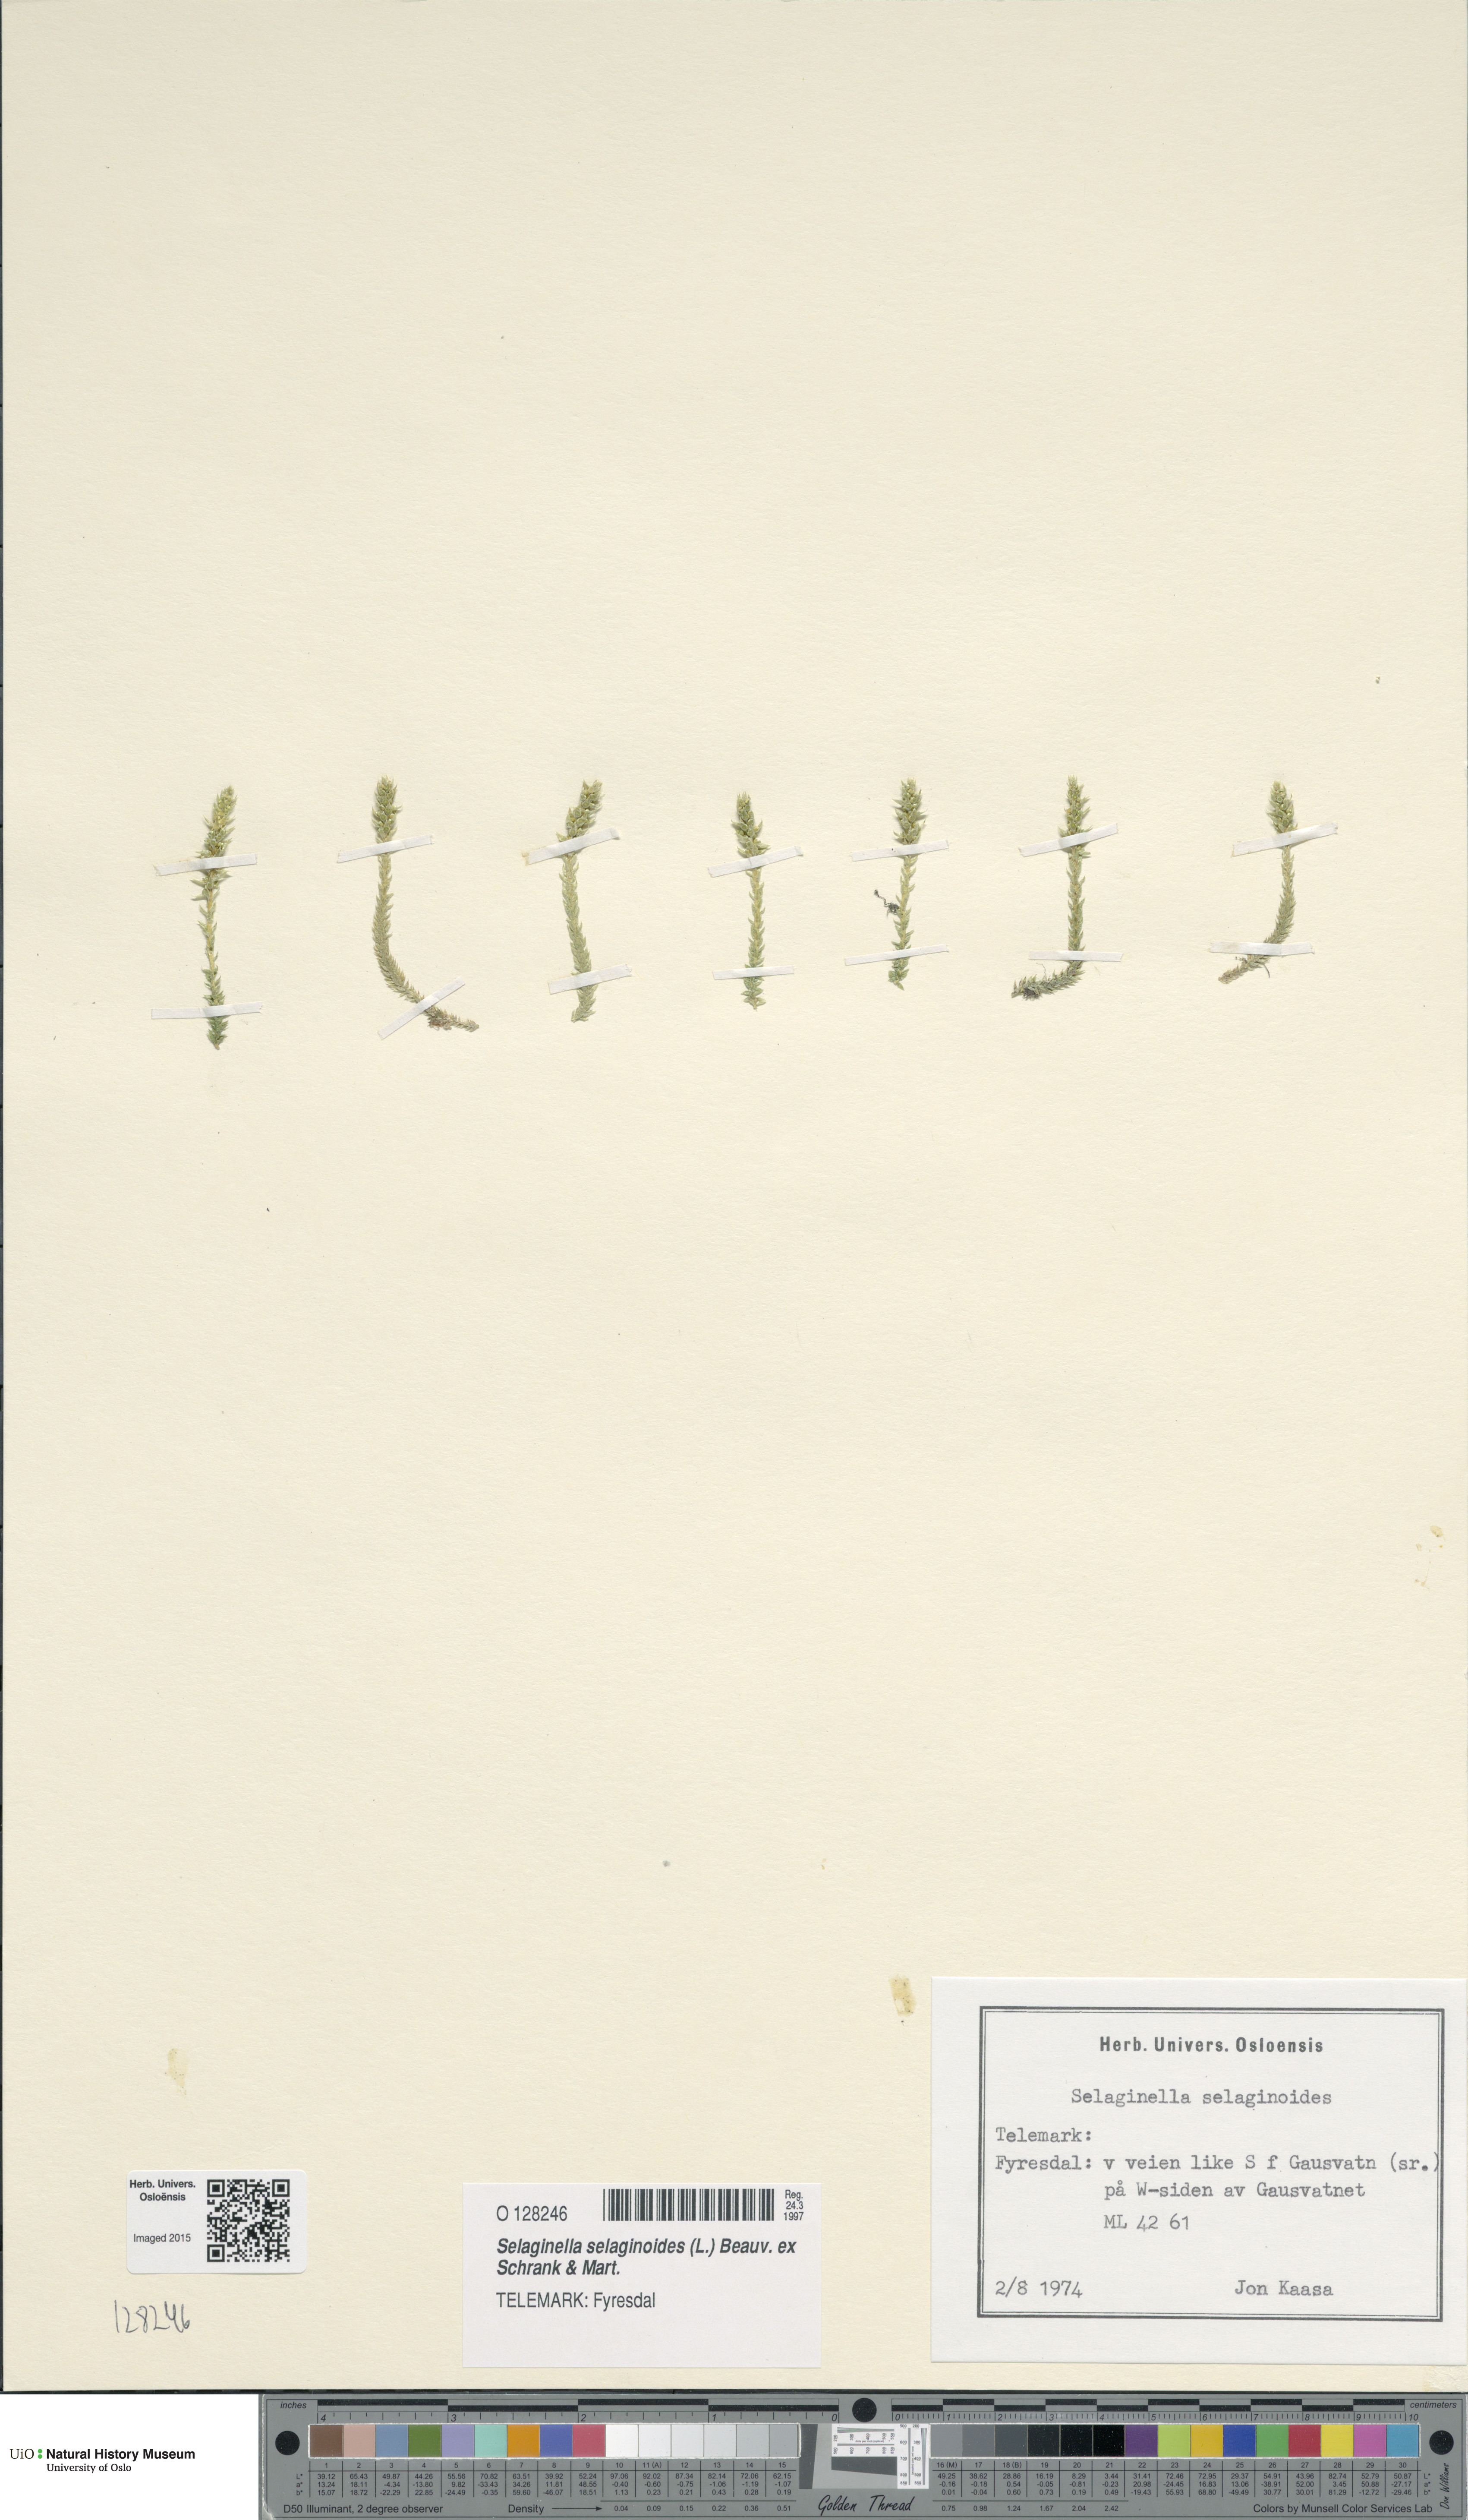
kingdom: Plantae
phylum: Tracheophyta
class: Lycopodiopsida
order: Selaginellales
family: Selaginellaceae
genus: Selaginella
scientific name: Selaginella selaginoides
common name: Prickly mountain-moss
